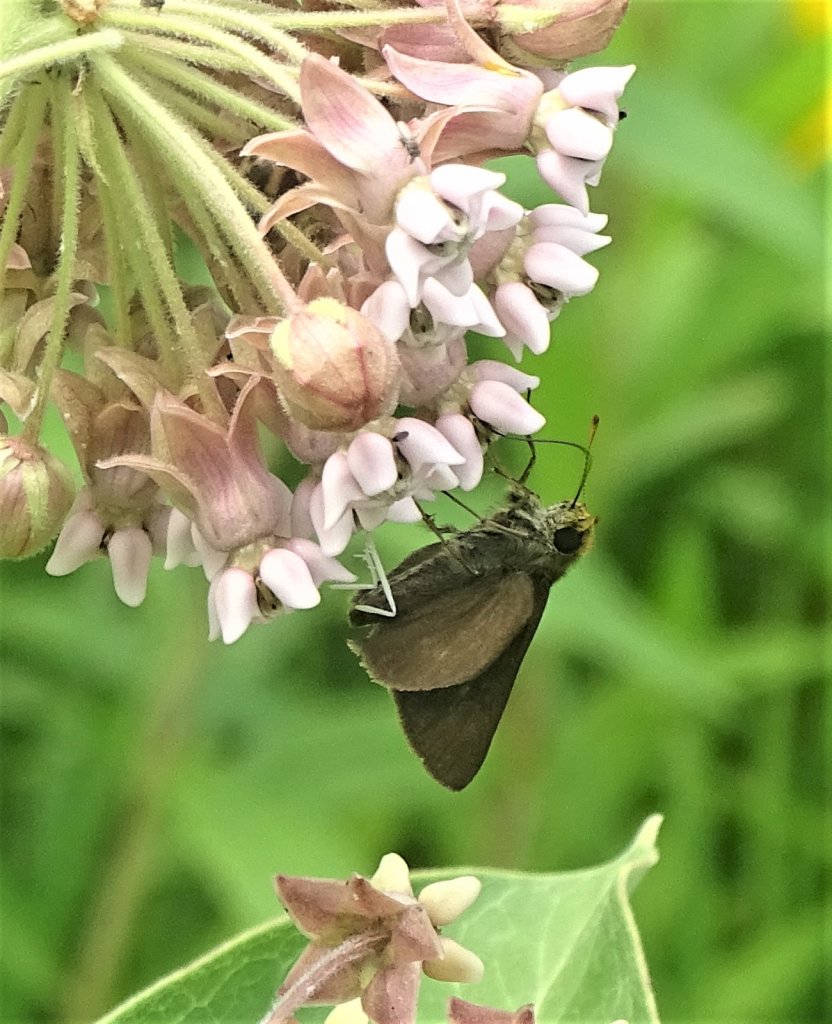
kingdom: Animalia
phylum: Arthropoda
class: Insecta
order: Lepidoptera
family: Hesperiidae
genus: Euphyes
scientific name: Euphyes vestris
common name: Dun Skipper
